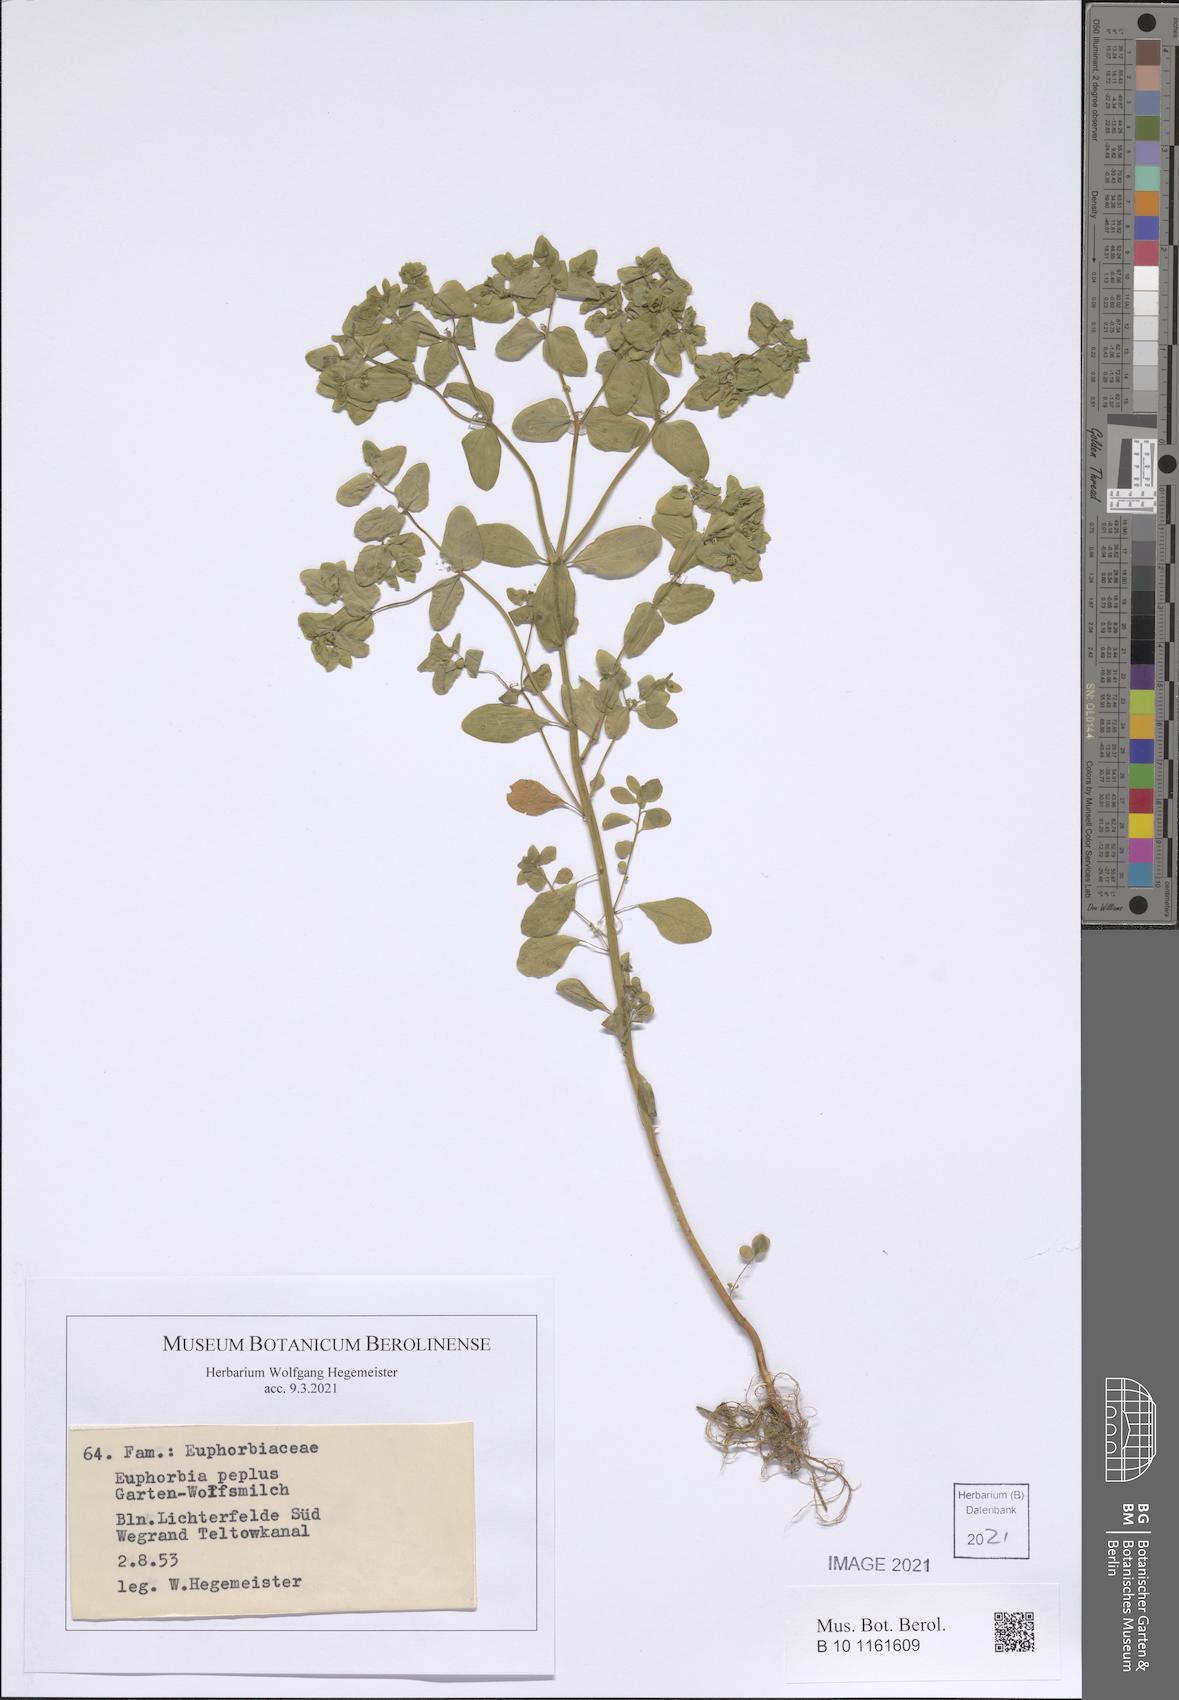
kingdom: Plantae
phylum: Tracheophyta
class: Magnoliopsida
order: Malpighiales
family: Euphorbiaceae
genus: Euphorbia
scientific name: Euphorbia peplus
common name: Petty spurge
